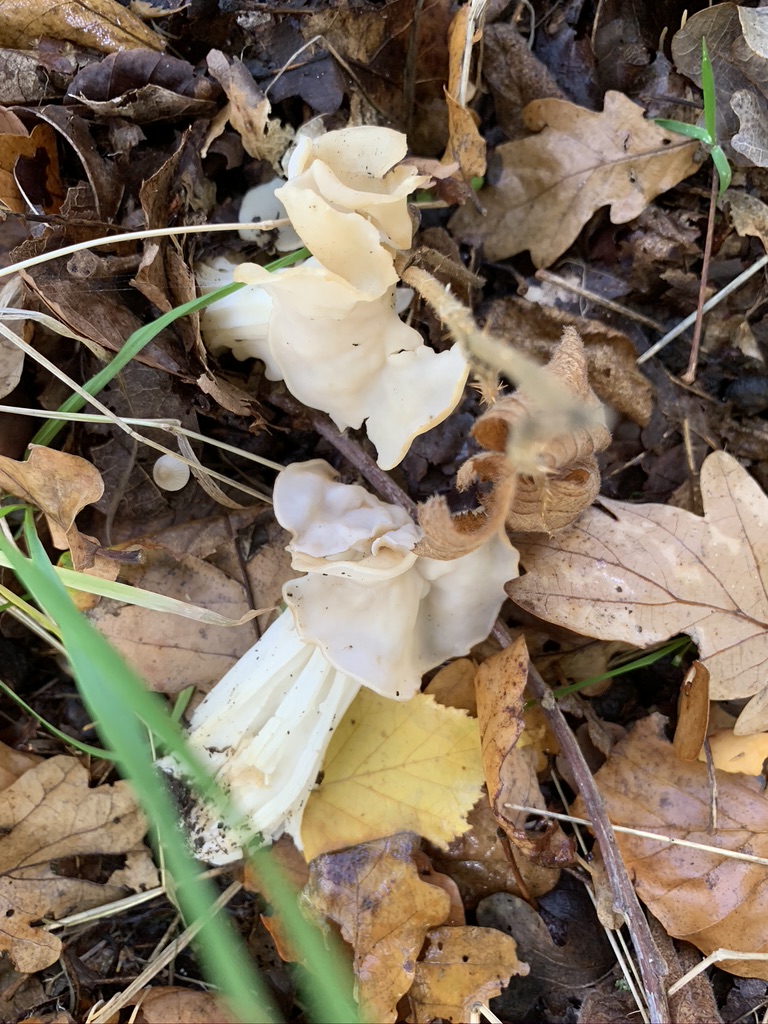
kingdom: Fungi
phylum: Ascomycota
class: Pezizomycetes
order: Pezizales
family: Helvellaceae
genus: Helvella
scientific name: Helvella crispa
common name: kruset foldhat
